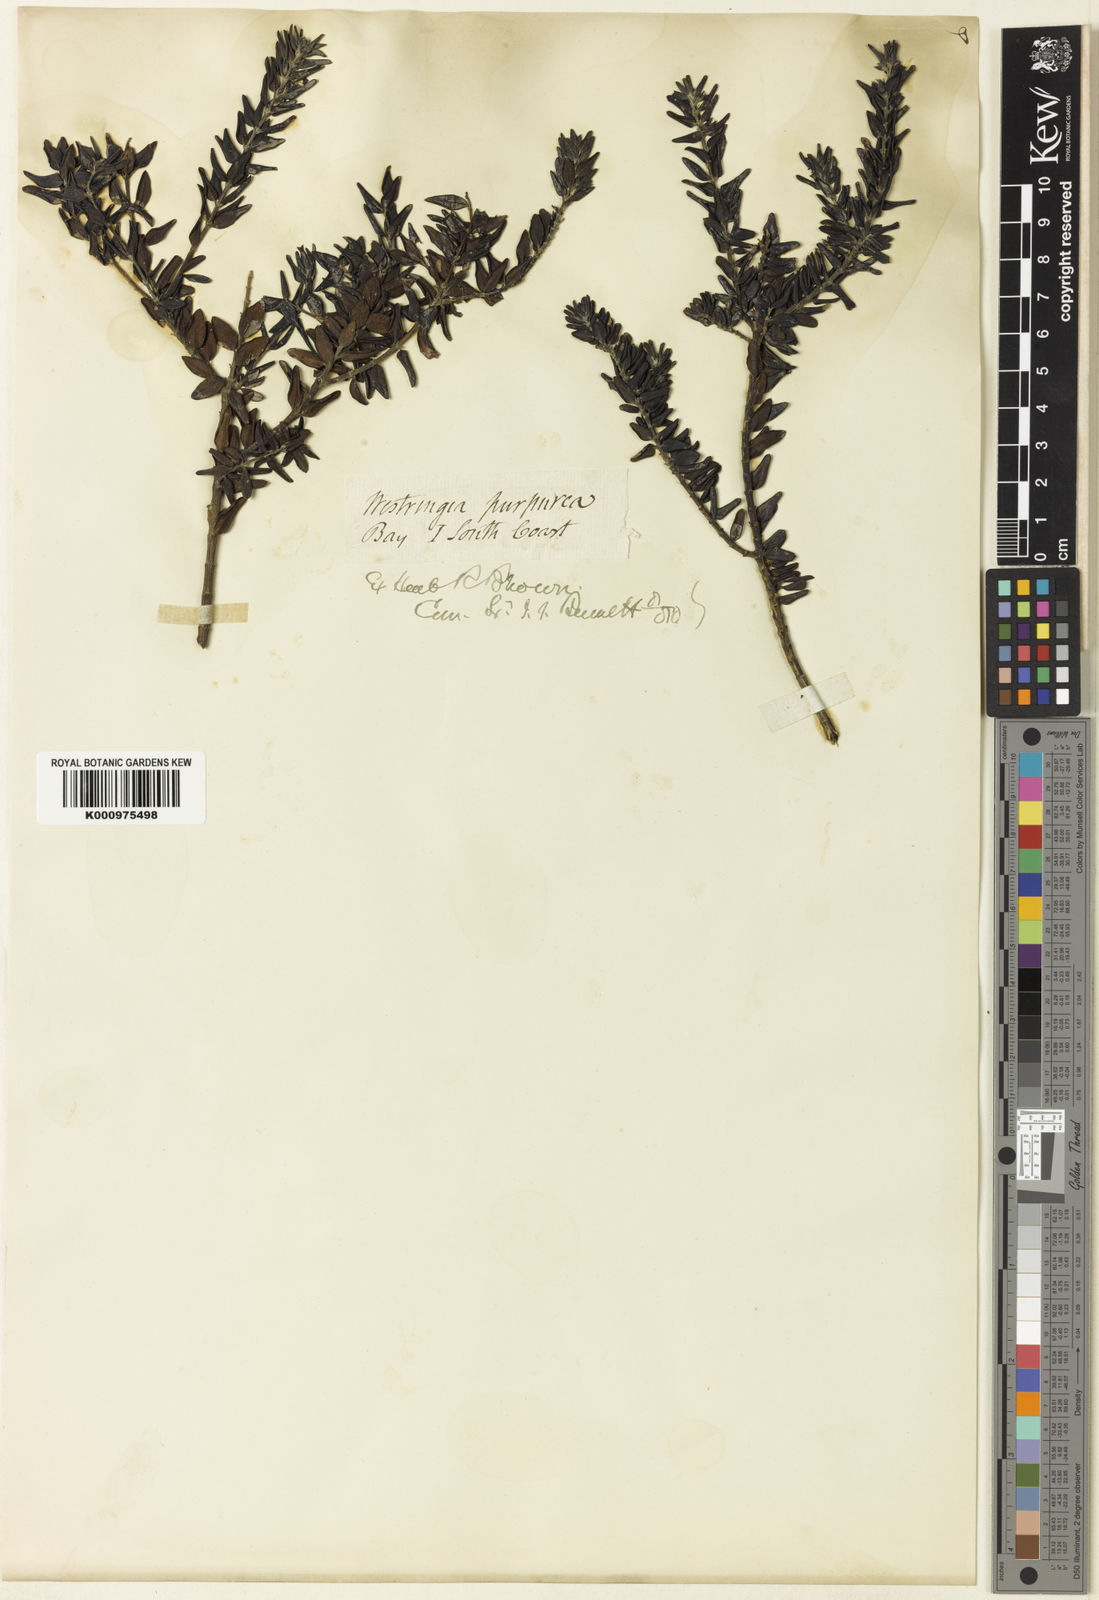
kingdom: Plantae
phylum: Tracheophyta
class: Magnoliopsida
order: Lamiales
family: Lamiaceae
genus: Westringia
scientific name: Westringia
